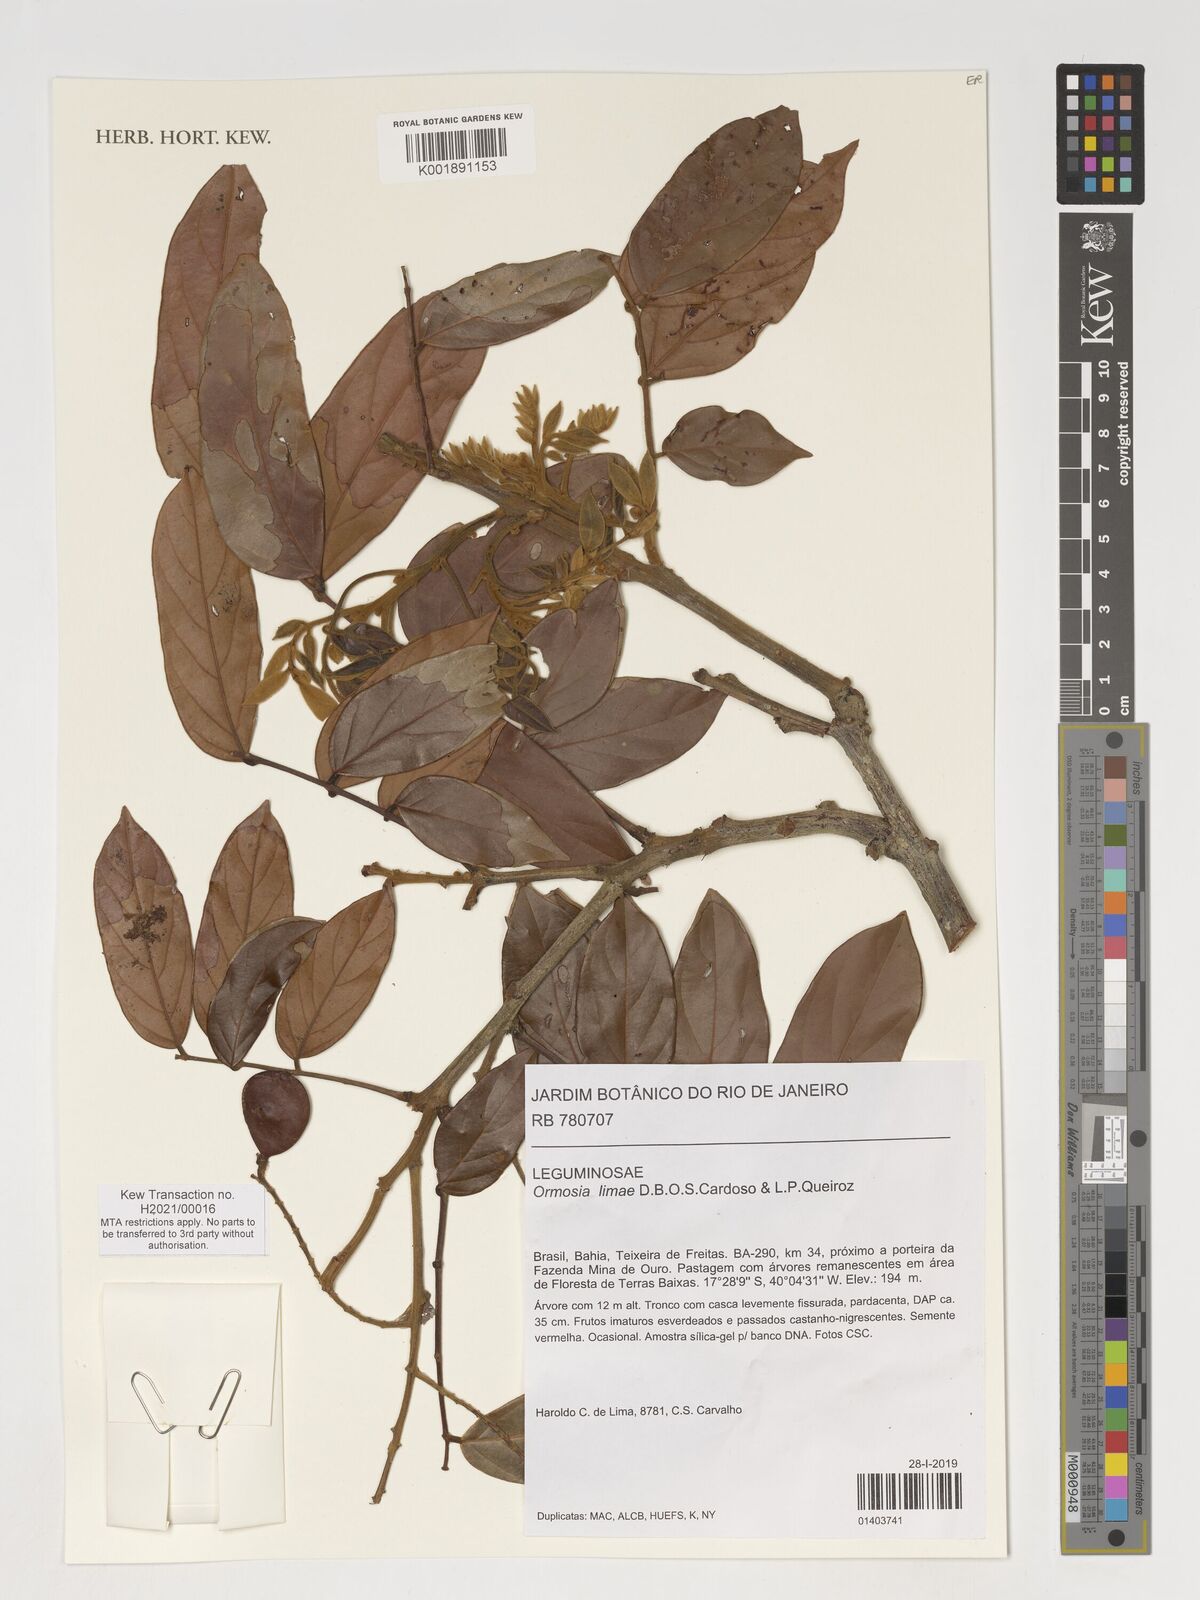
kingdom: Plantae
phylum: Tracheophyta
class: Magnoliopsida
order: Fabales
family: Fabaceae
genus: Ormosia
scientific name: Ormosia limae
